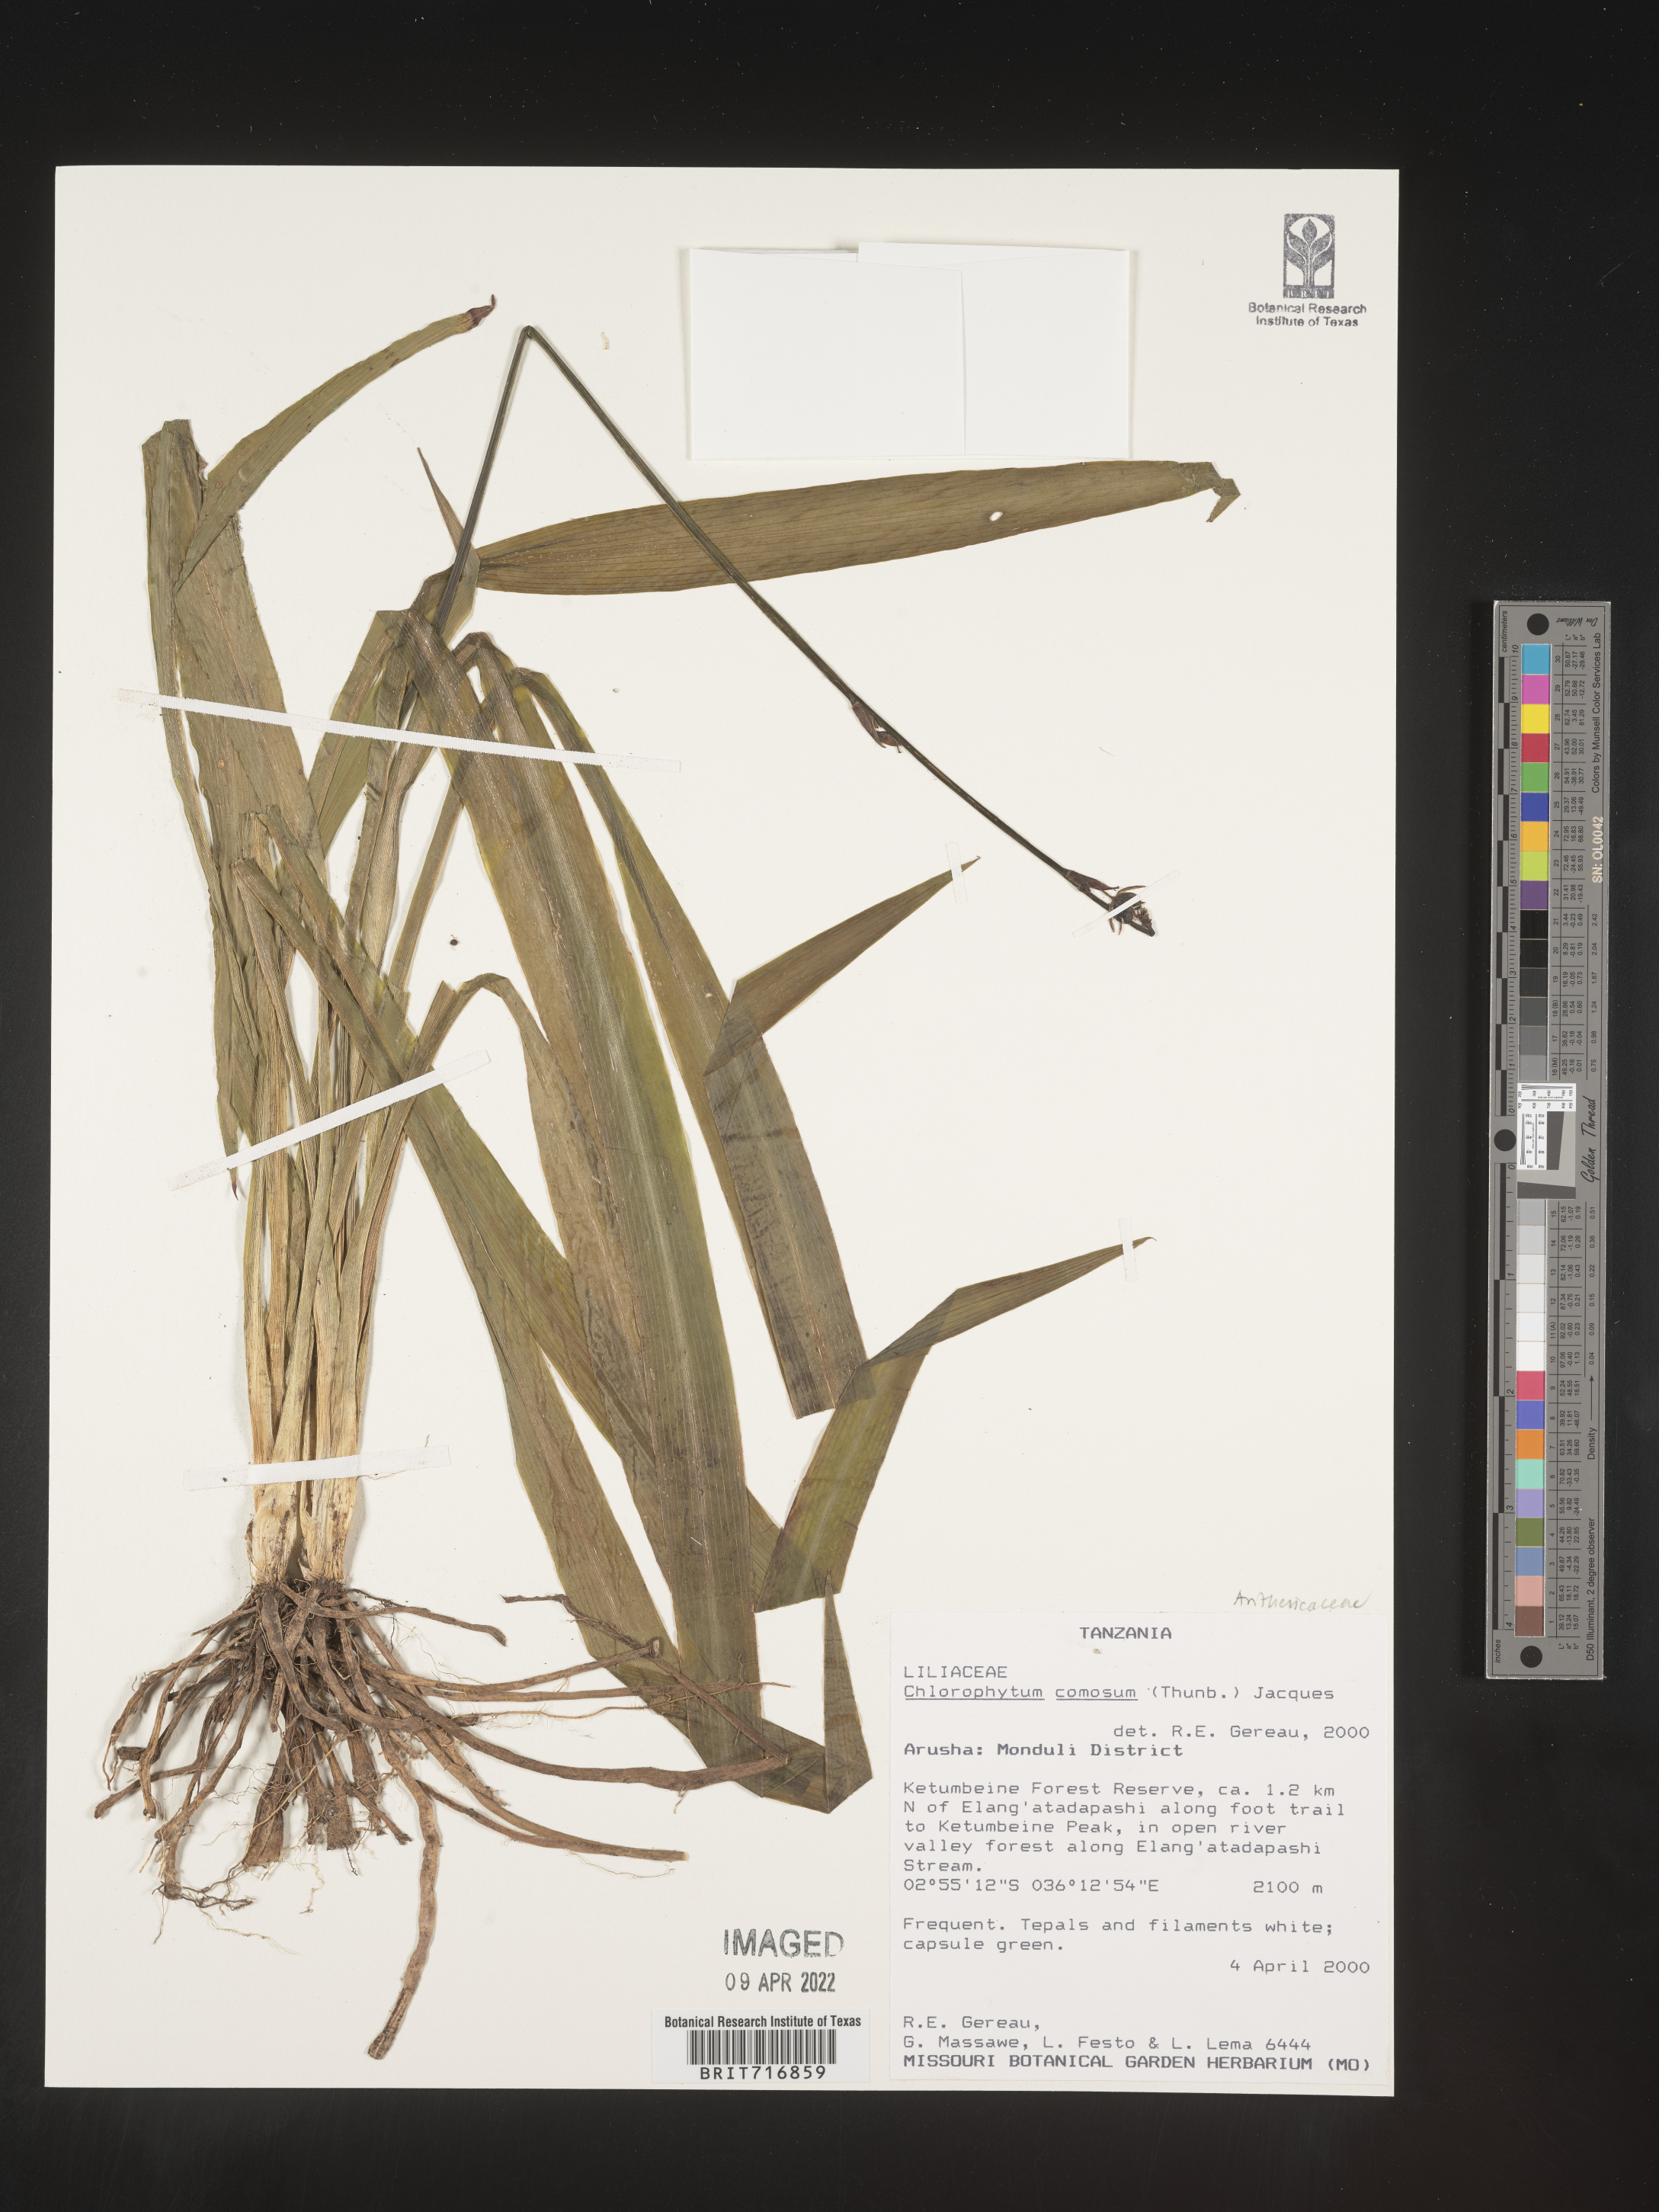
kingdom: Plantae
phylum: Tracheophyta
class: Liliopsida
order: Asparagales
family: Asparagaceae
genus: Chlorophytum
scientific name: Chlorophytum
